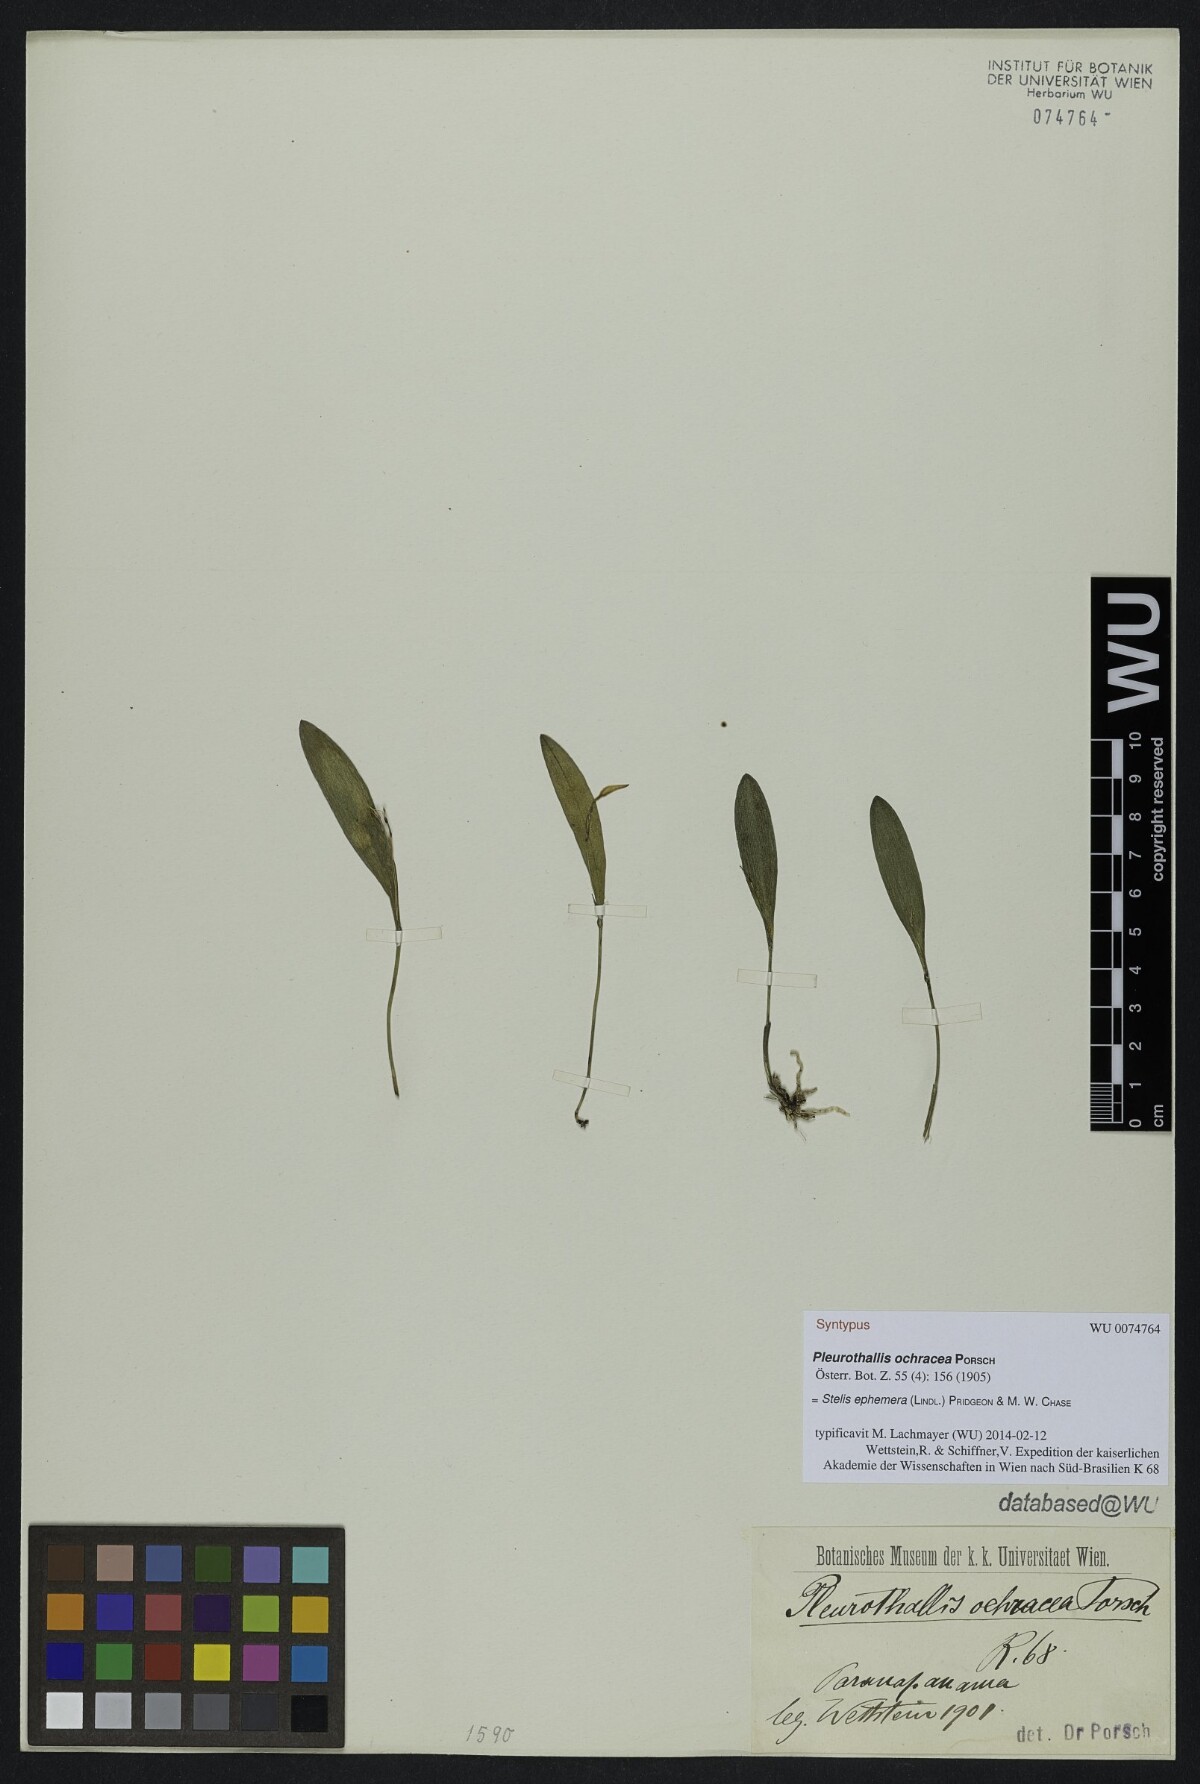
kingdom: Plantae
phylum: Tracheophyta
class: Liliopsida
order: Asparagales
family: Orchidaceae
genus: Pabstiella
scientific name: Pabstiella ephemera
